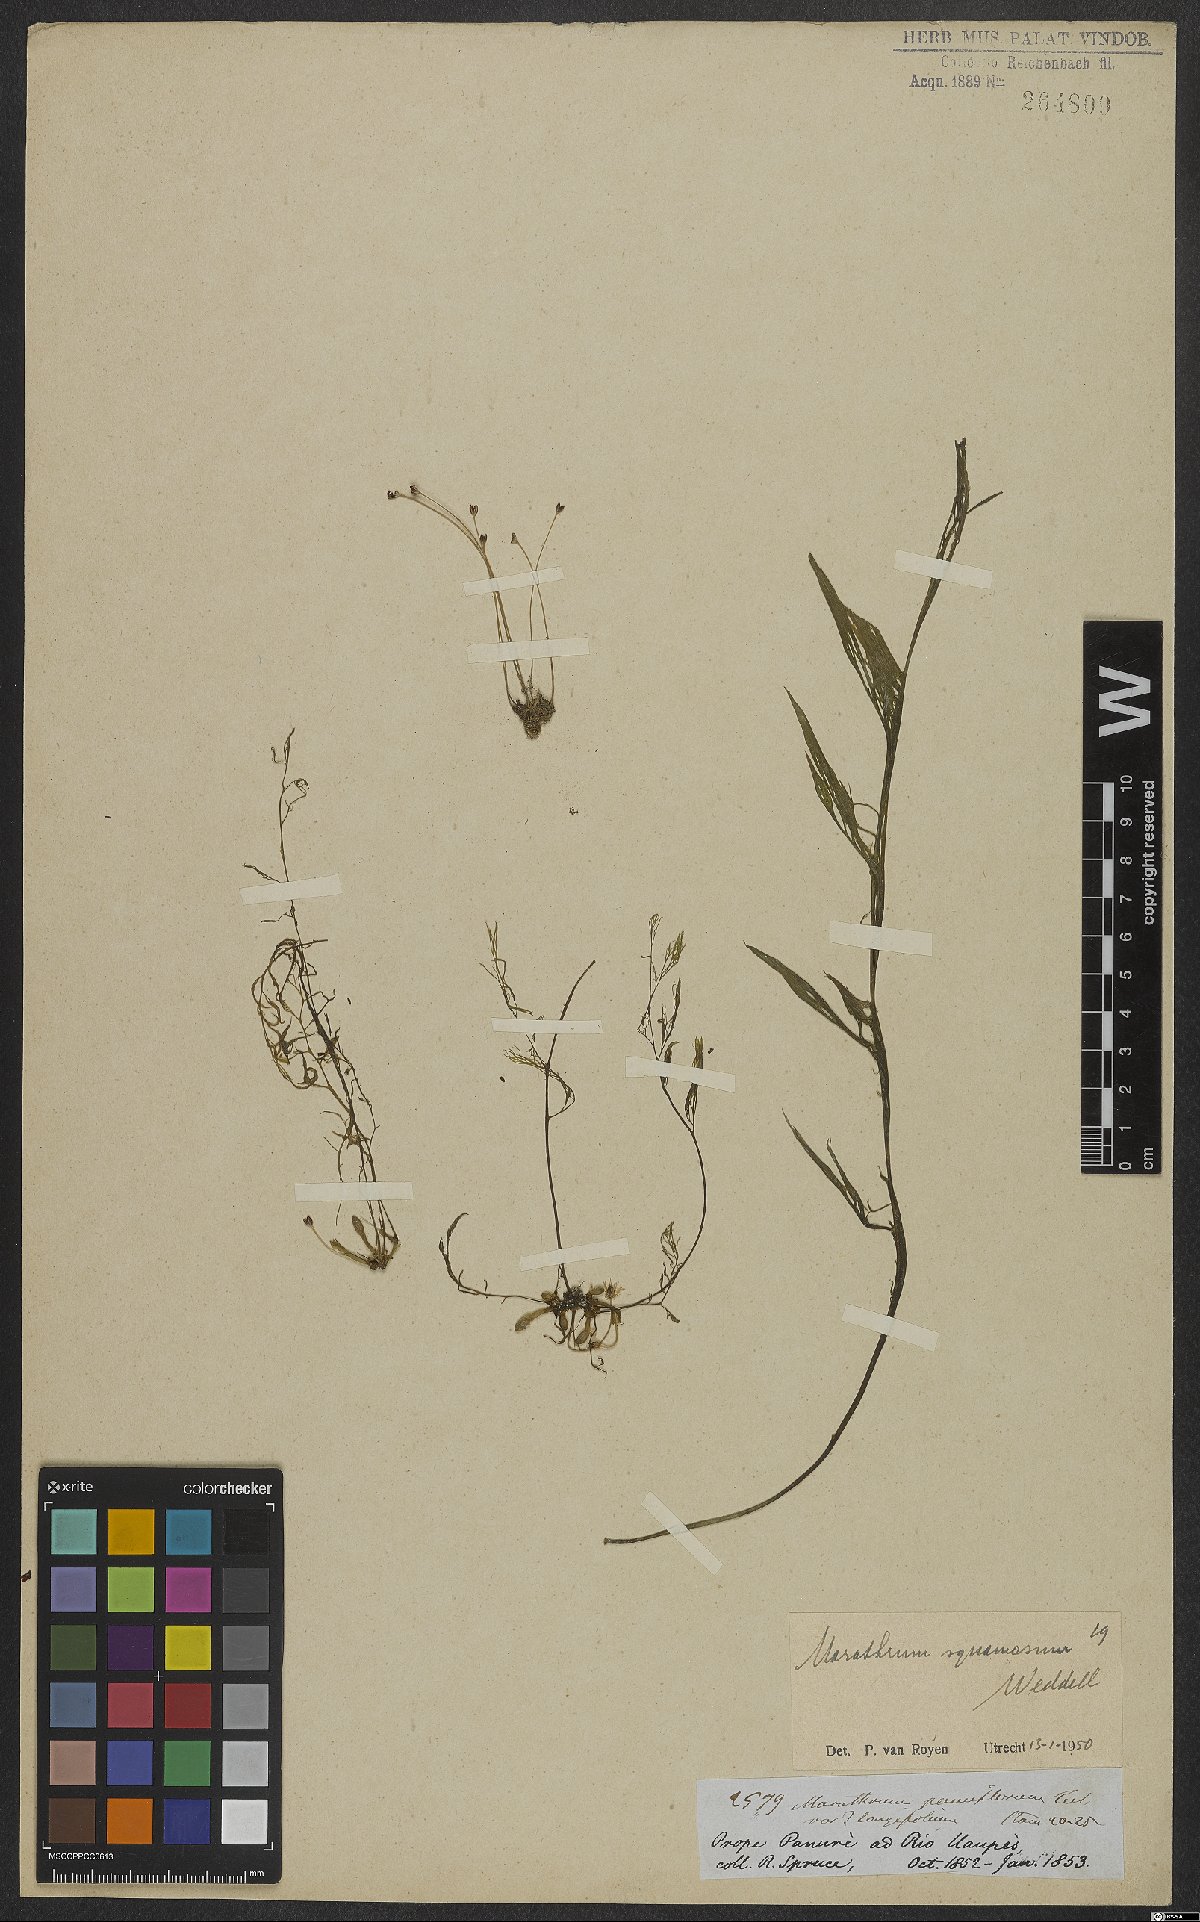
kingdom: Plantae
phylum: Tracheophyta
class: Magnoliopsida
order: Malpighiales
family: Podostemaceae
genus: Rhyncholacis
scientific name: Rhyncholacis squamosa
